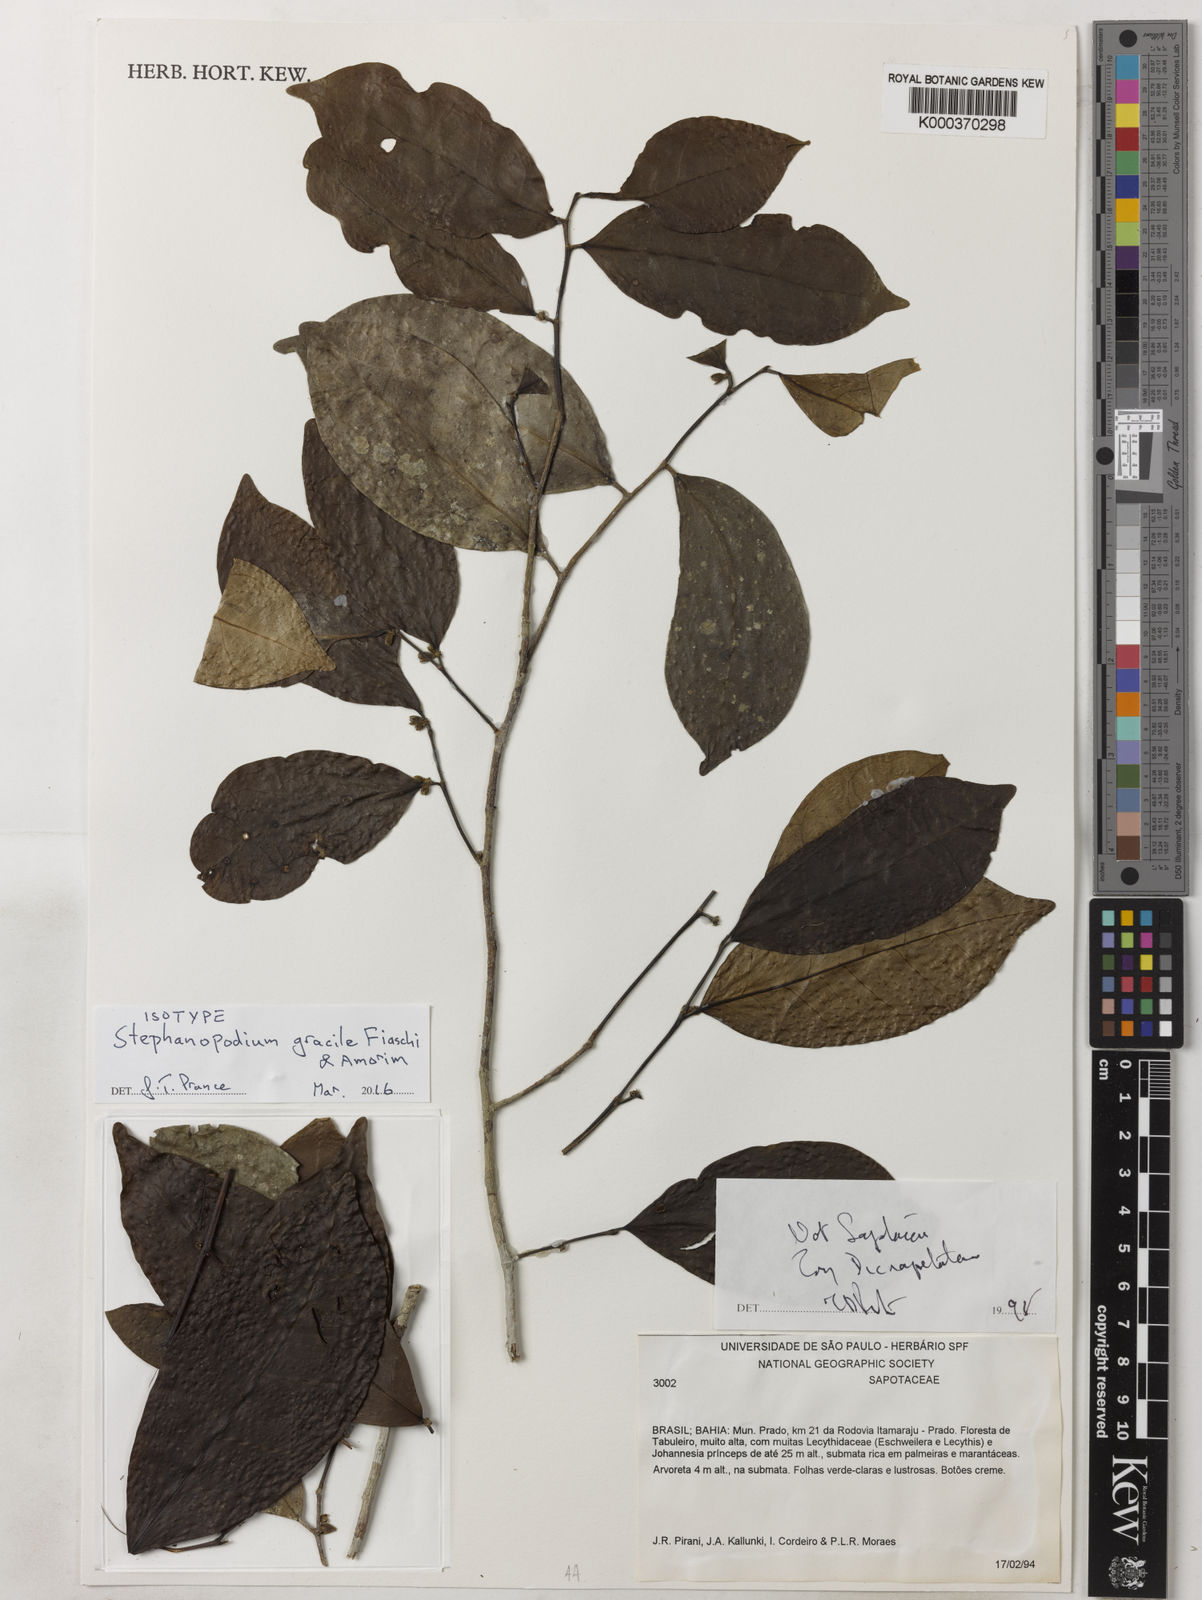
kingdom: Plantae
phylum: Tracheophyta
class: Magnoliopsida
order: Malpighiales
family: Dichapetalaceae
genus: Stephanopodium
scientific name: Stephanopodium gracile
